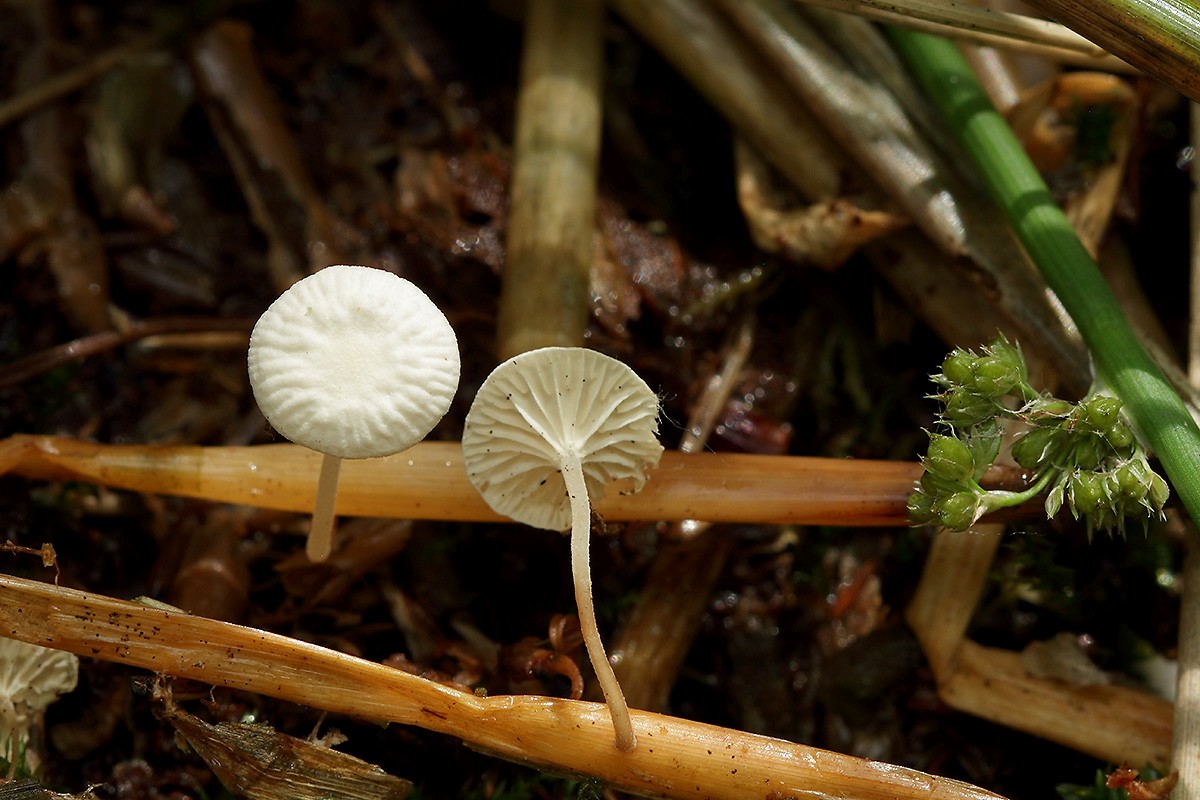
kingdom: Fungi
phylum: Basidiomycota
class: Agaricomycetes
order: Agaricales
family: Omphalotaceae
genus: Collybiopsis
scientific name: Collybiopsis vaillantii
